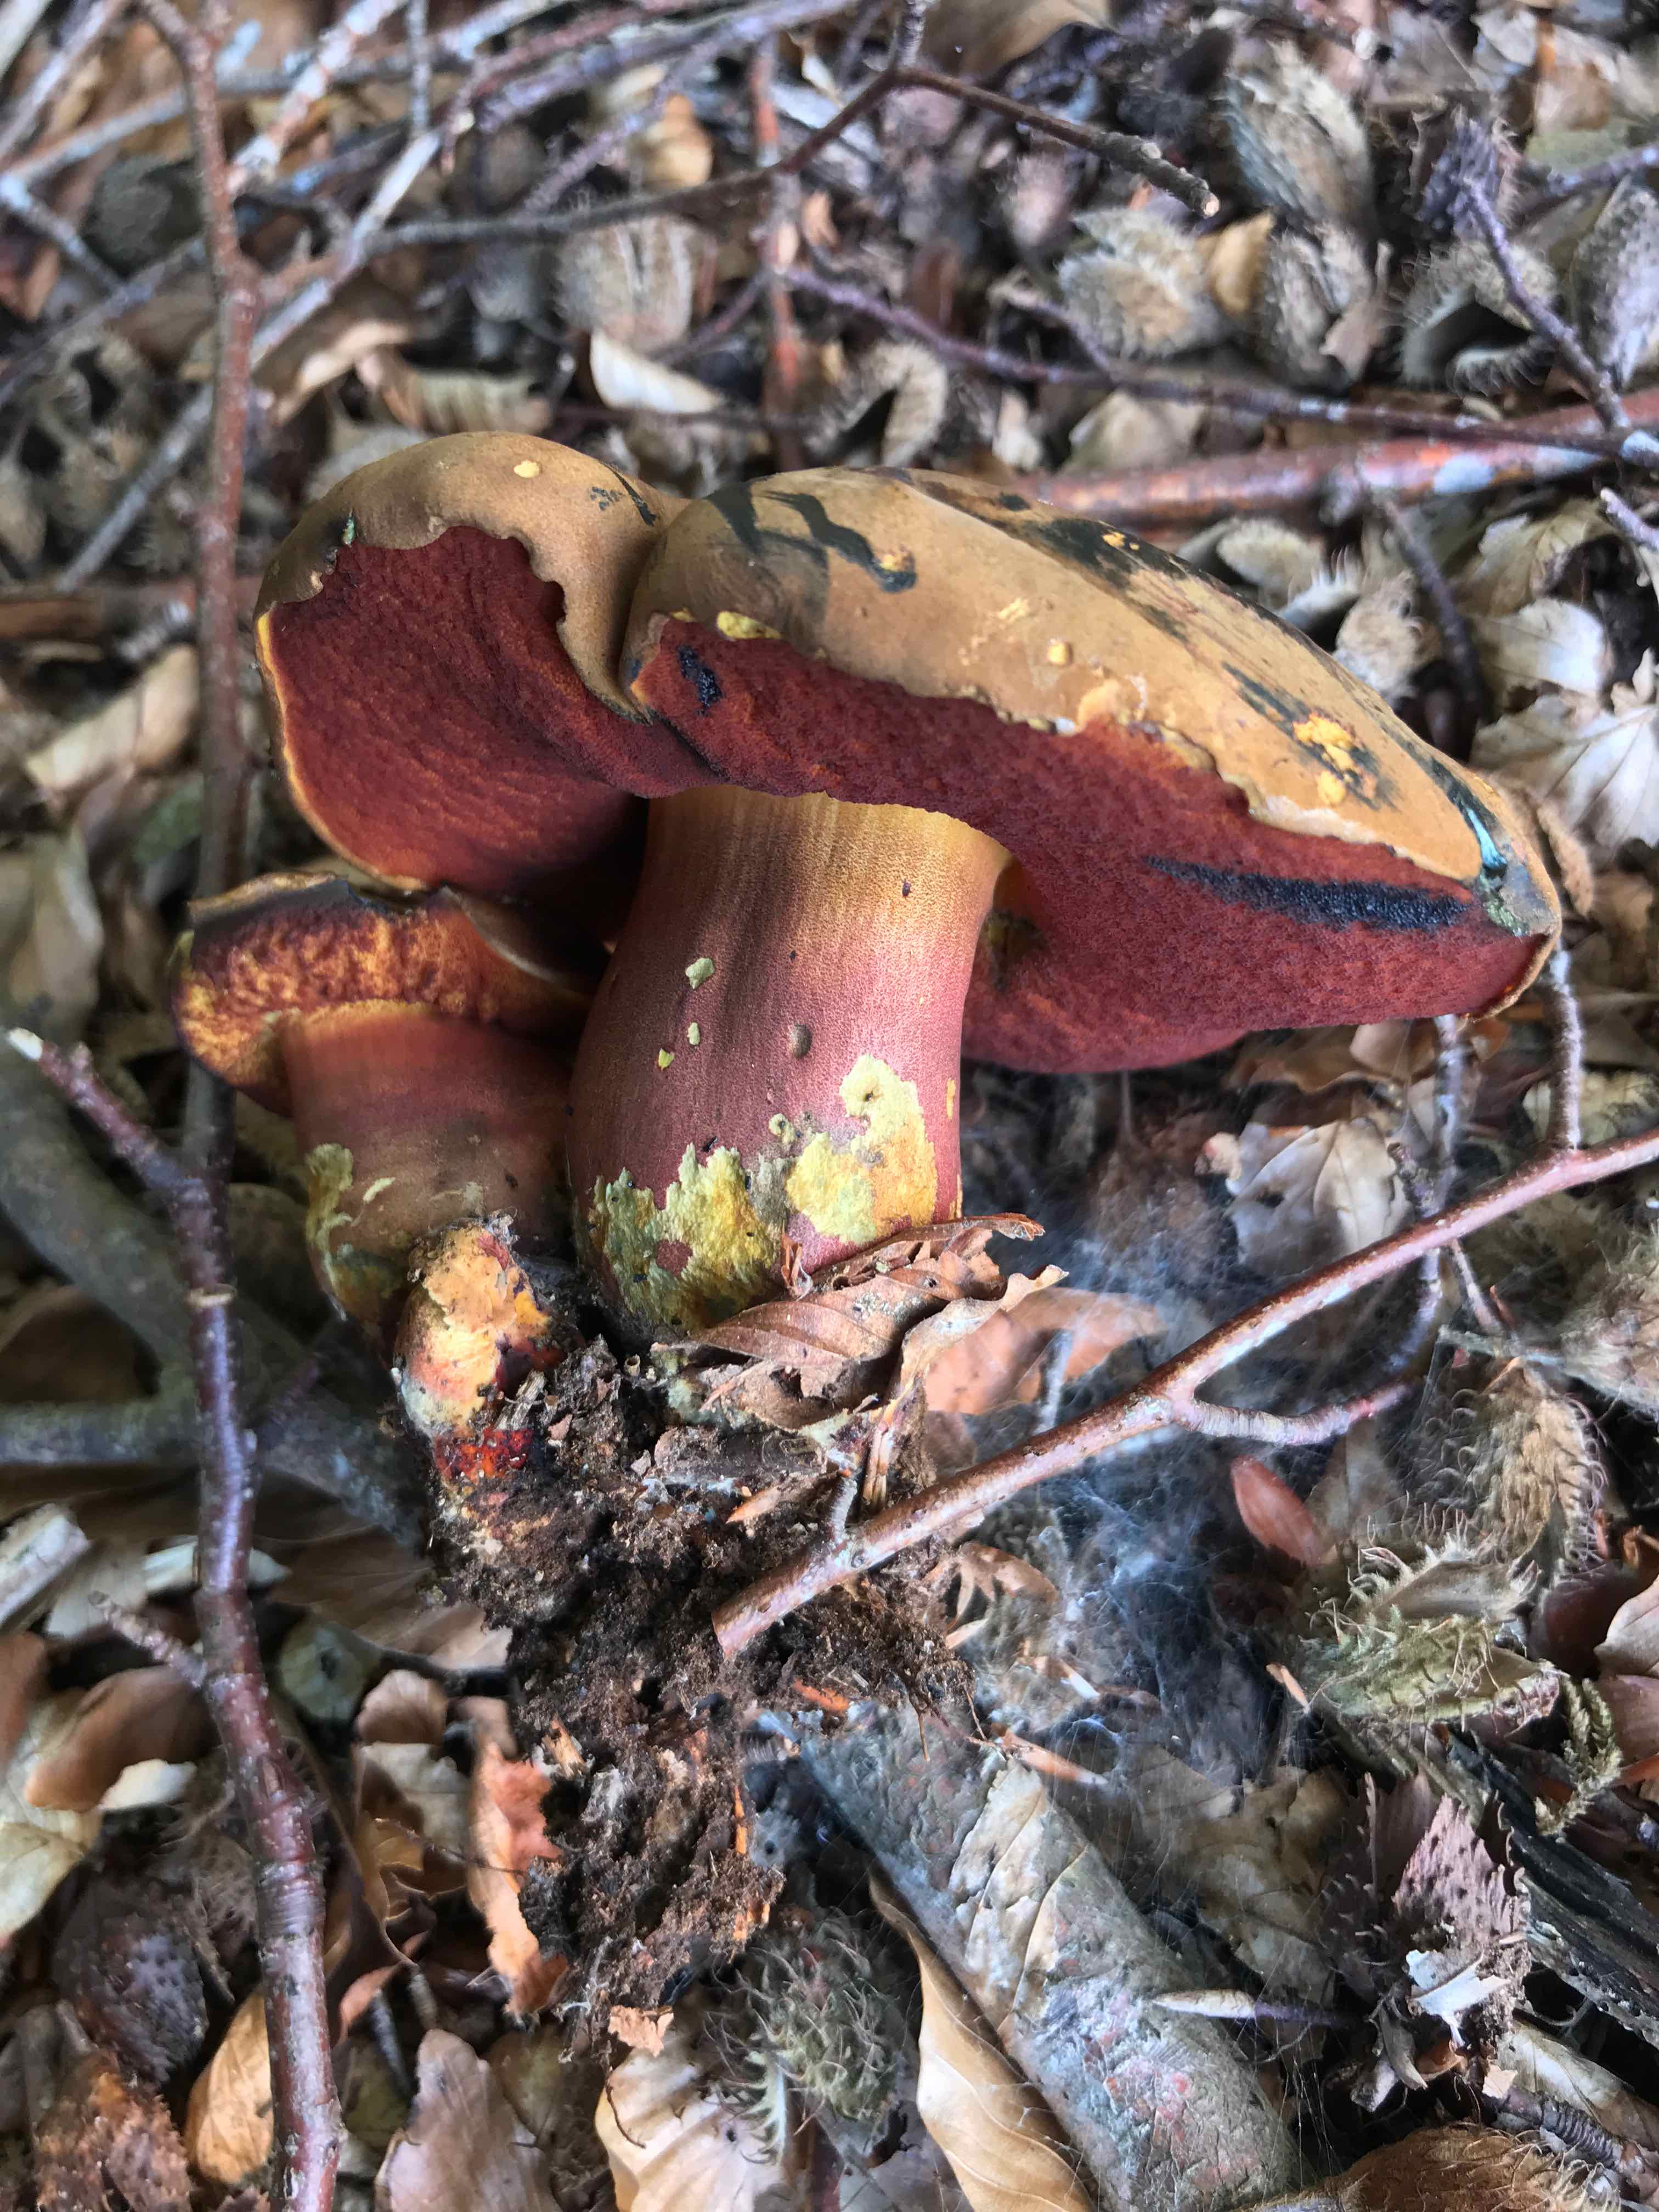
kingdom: Fungi
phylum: Basidiomycota
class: Agaricomycetes
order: Boletales
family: Boletaceae
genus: Neoboletus
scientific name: Neoboletus erythropus
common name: punktstokket indigorørhat
